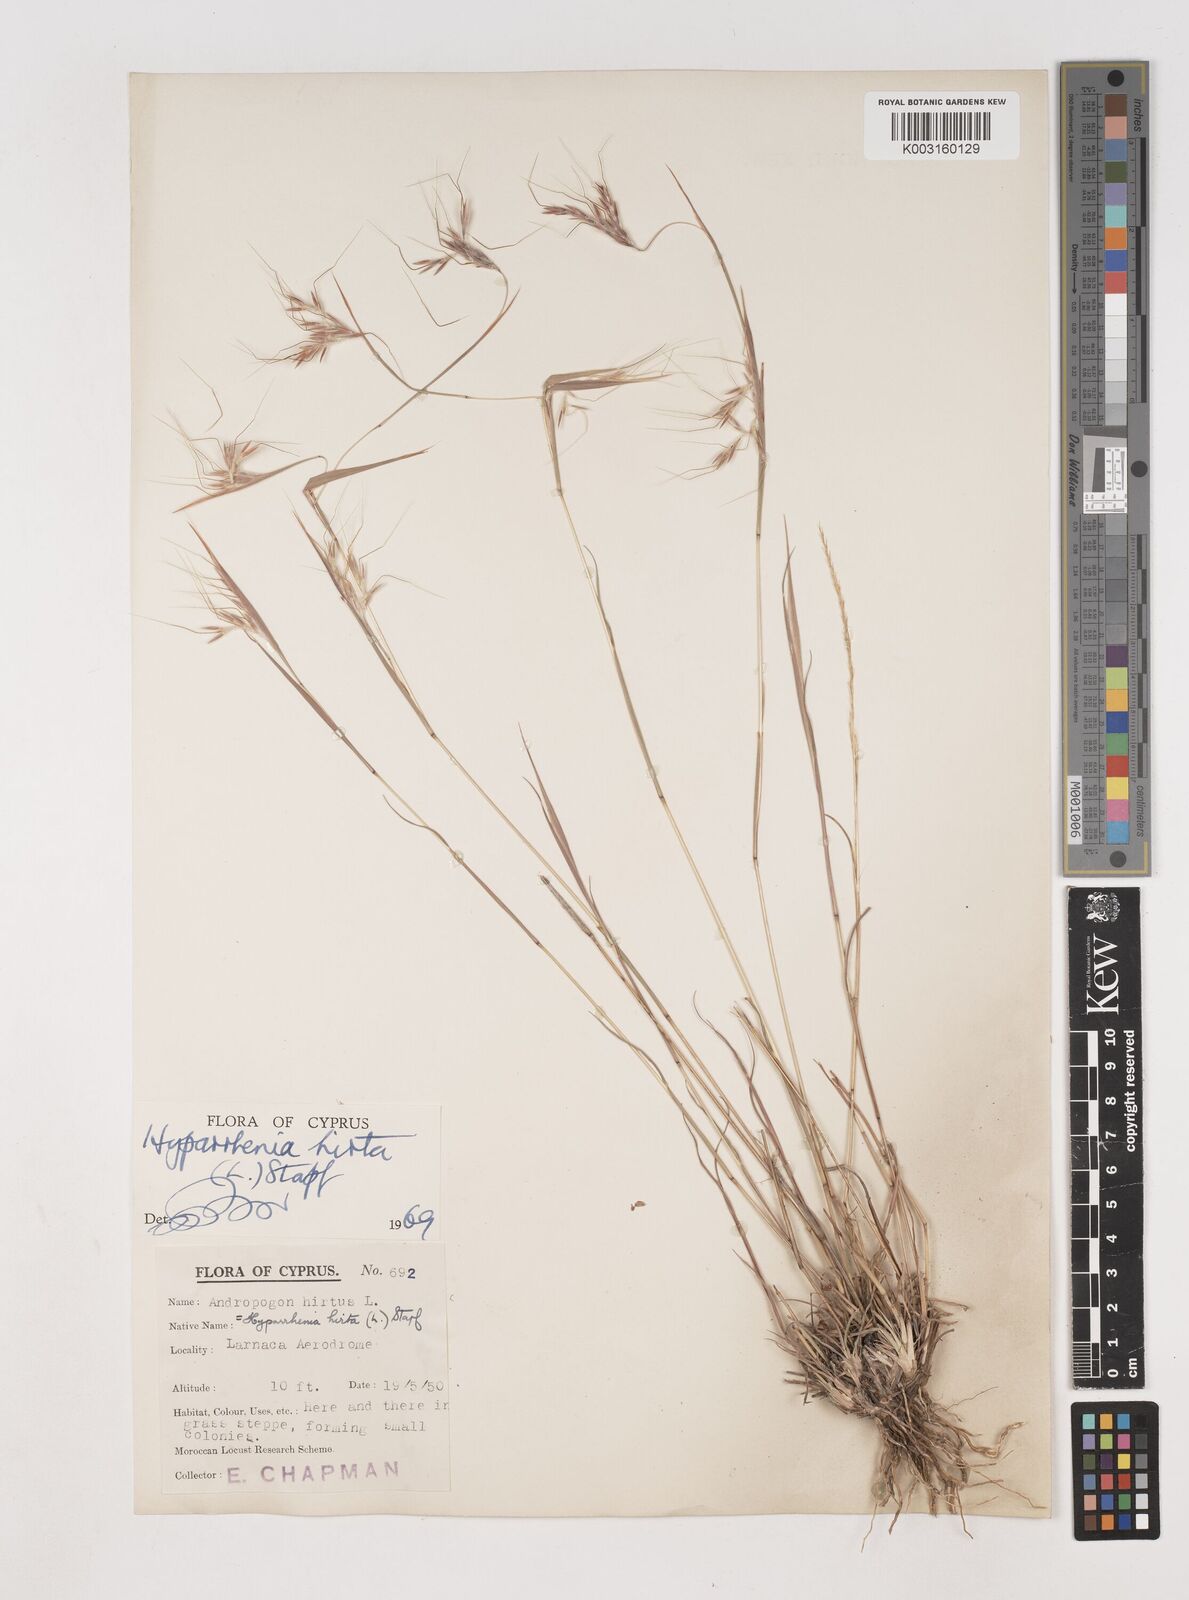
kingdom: Plantae
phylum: Tracheophyta
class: Liliopsida
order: Poales
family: Poaceae
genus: Hyparrhenia
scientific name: Hyparrhenia hirta
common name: Thatching grass
